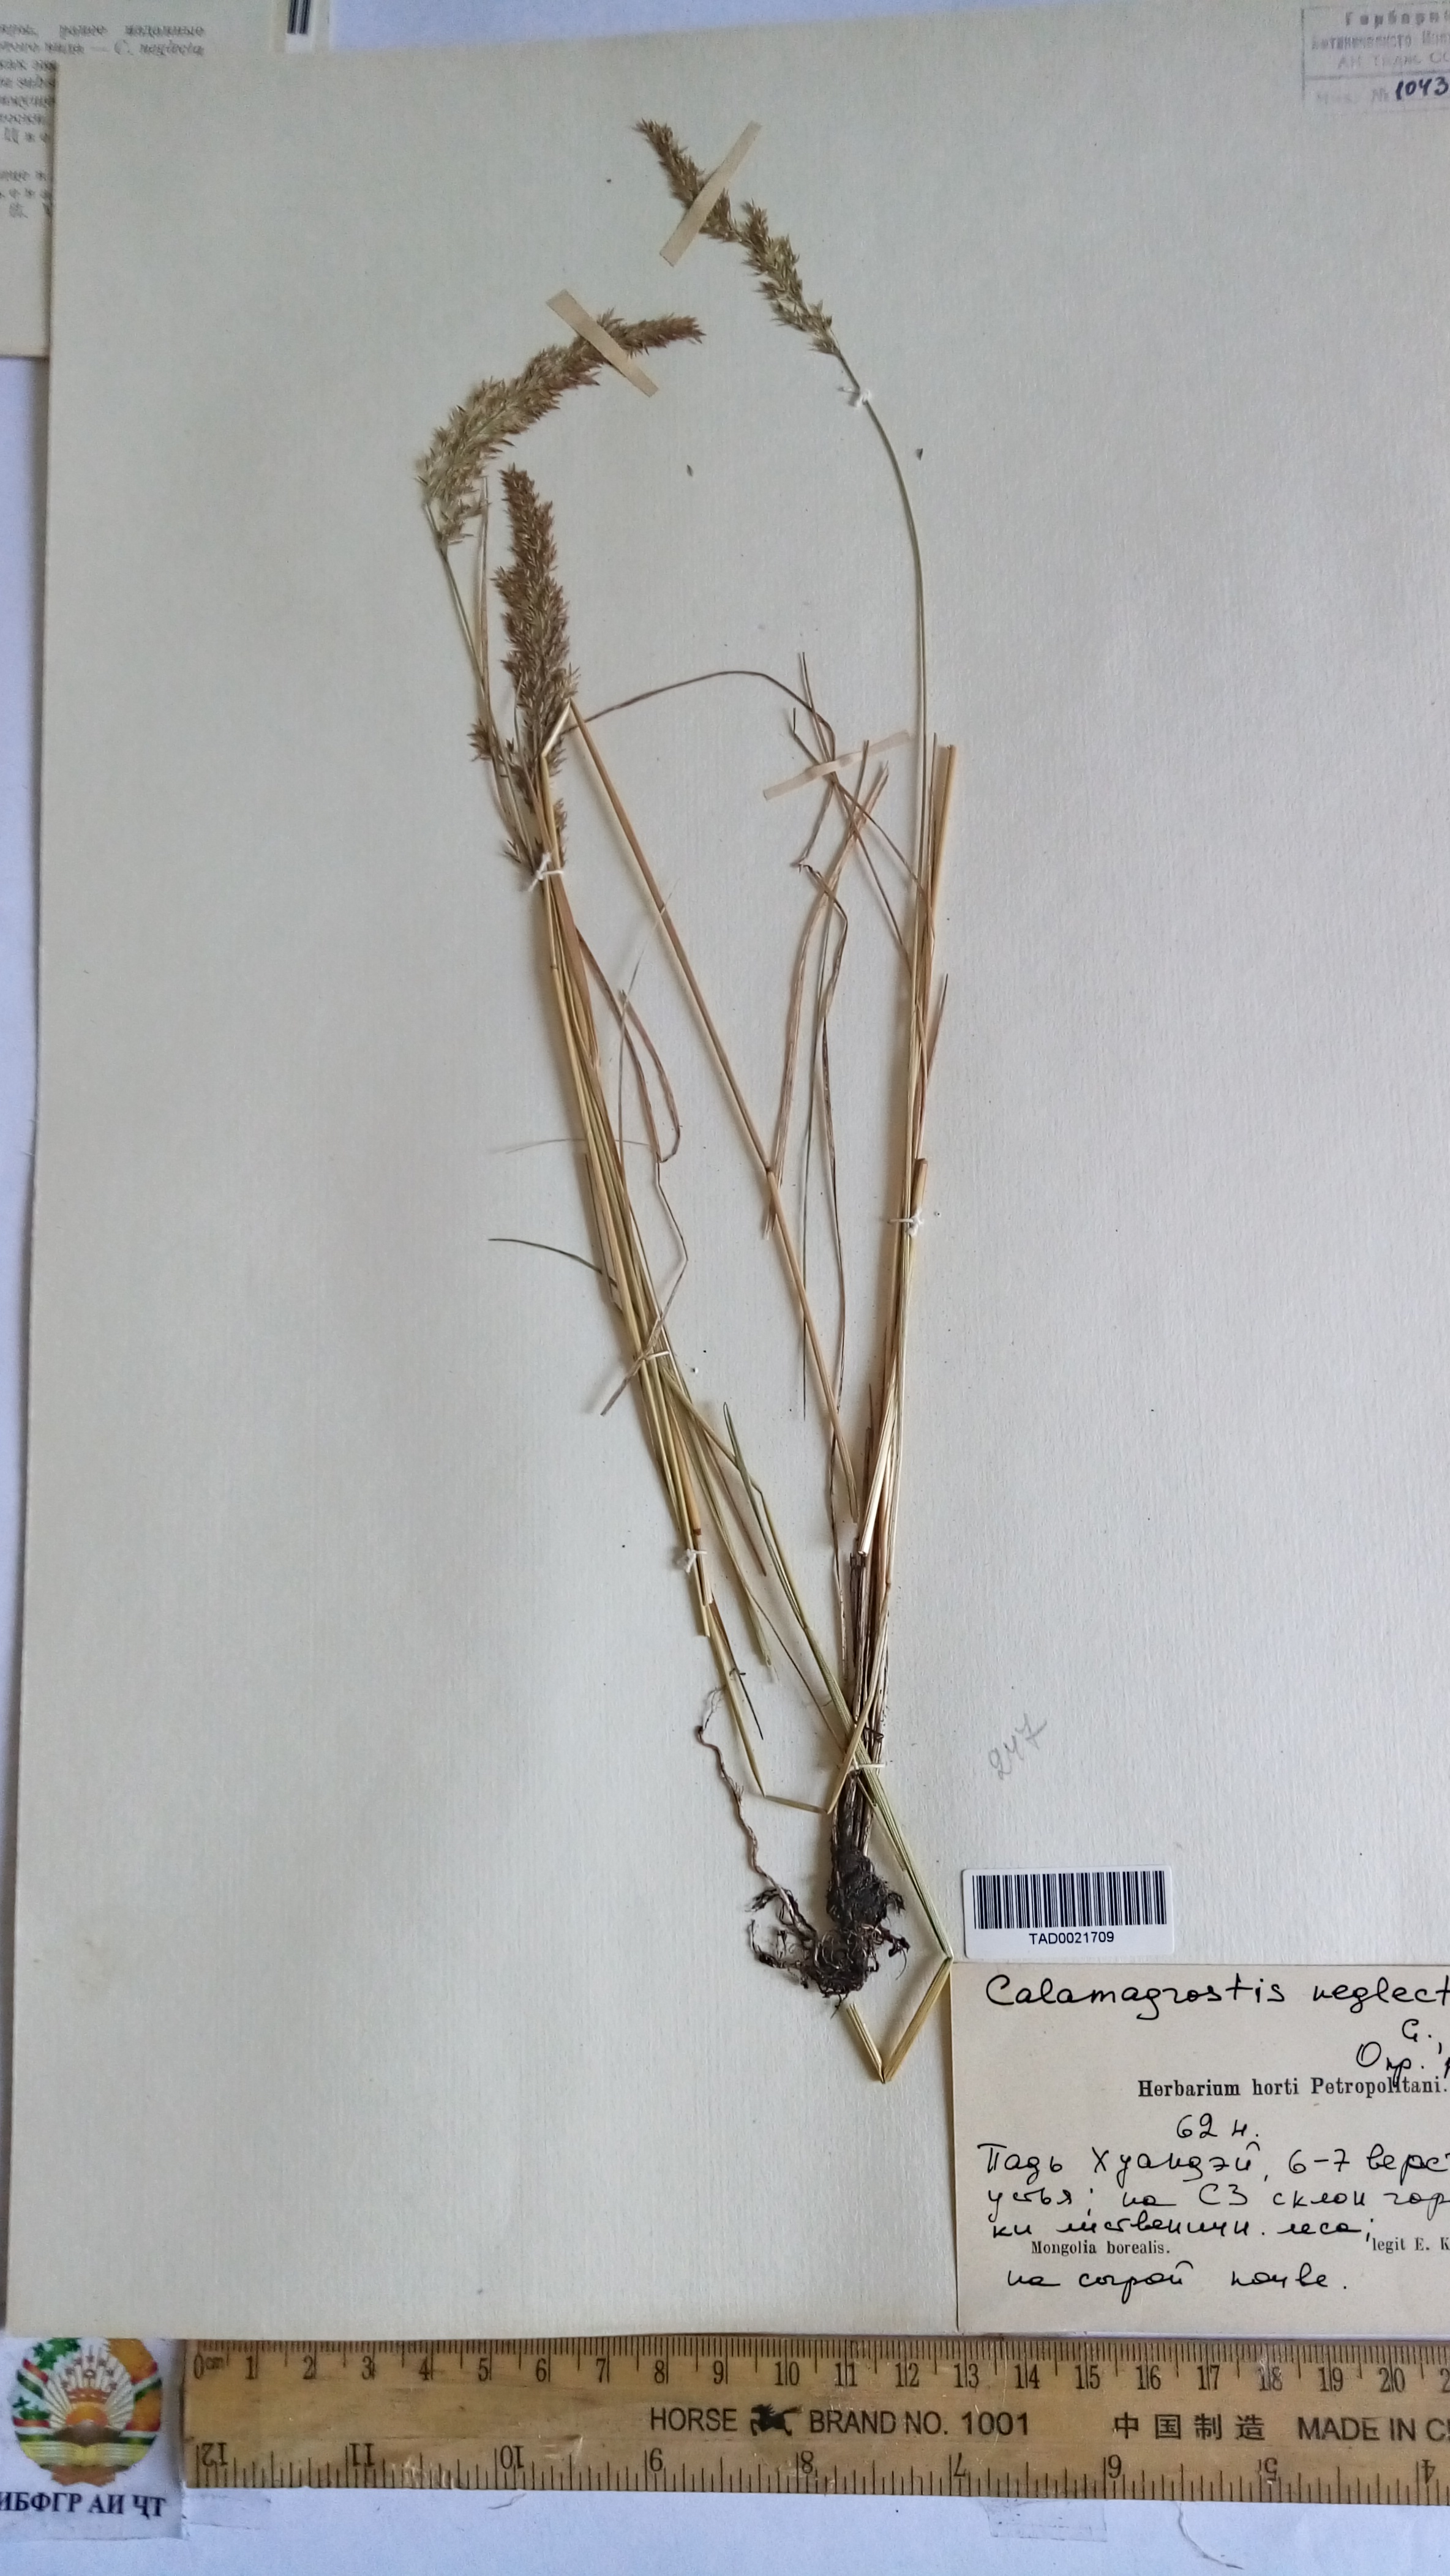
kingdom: Plantae
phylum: Tracheophyta
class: Liliopsida
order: Poales
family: Poaceae
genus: Achnatherum
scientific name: Achnatherum calamagrostis
